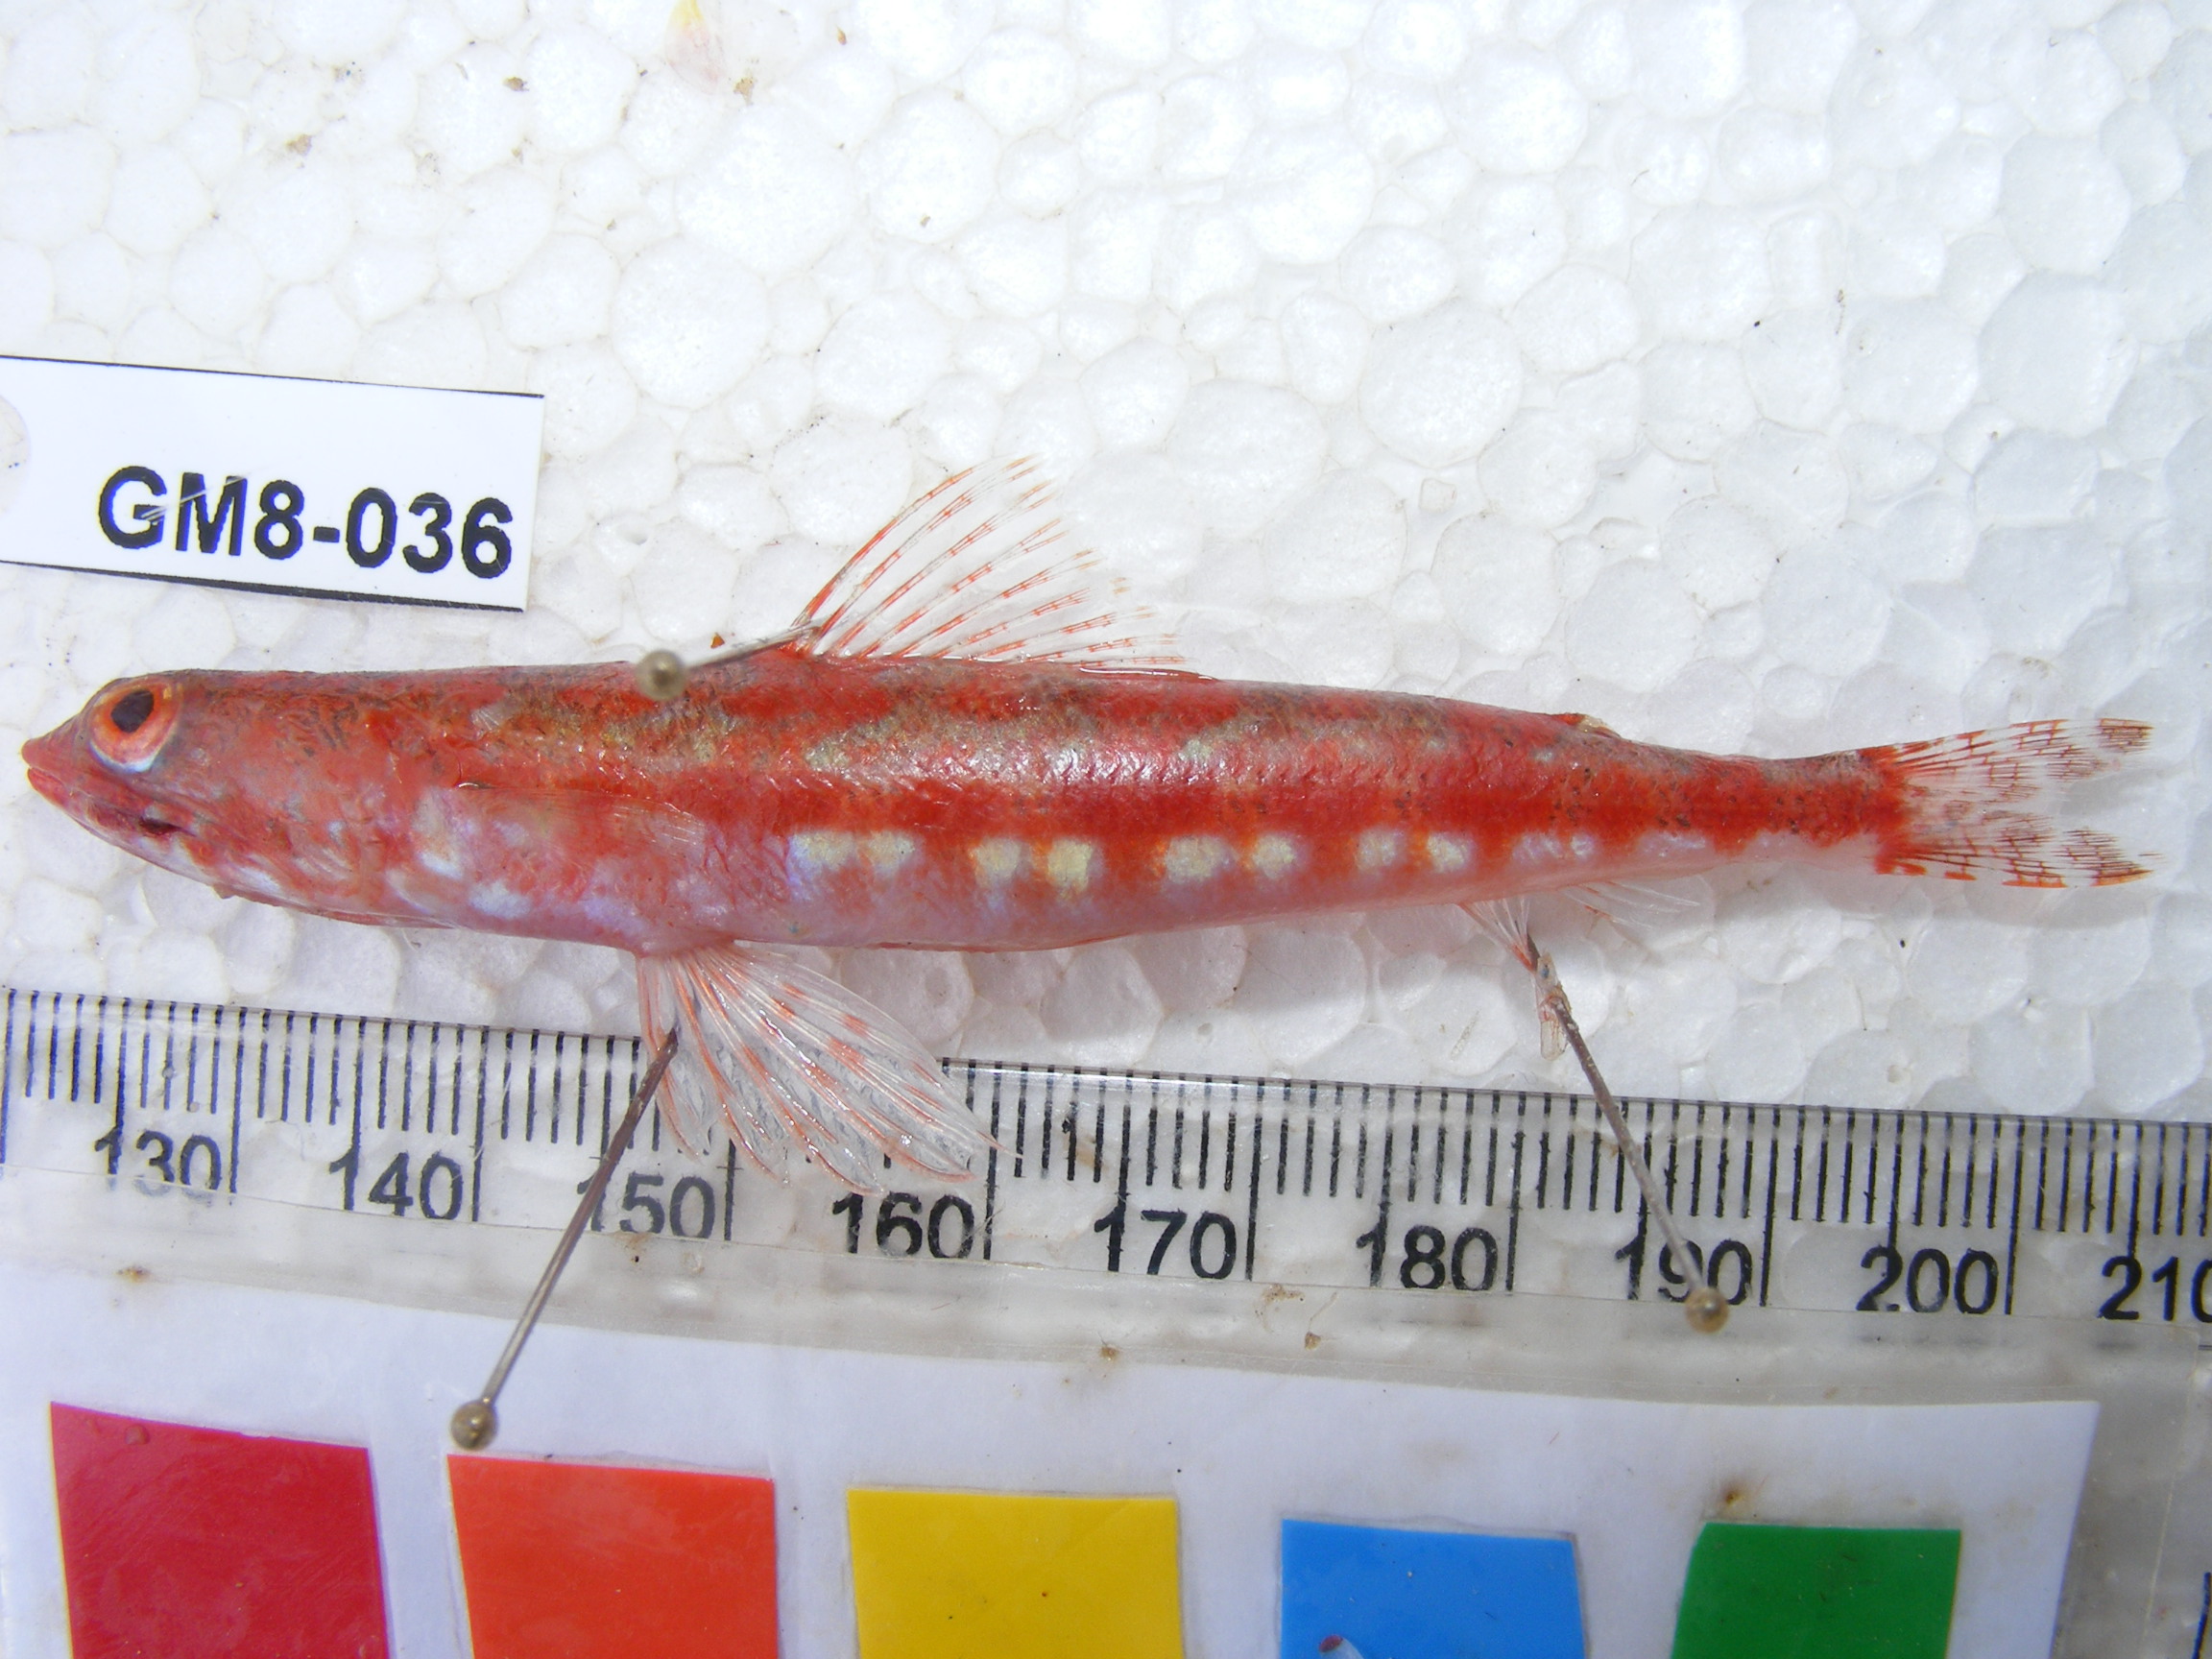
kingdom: Animalia
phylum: Chordata
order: Aulopiformes
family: Synodontidae
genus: Synodus
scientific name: Synodus dermatogenys
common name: Banded lizardfish
